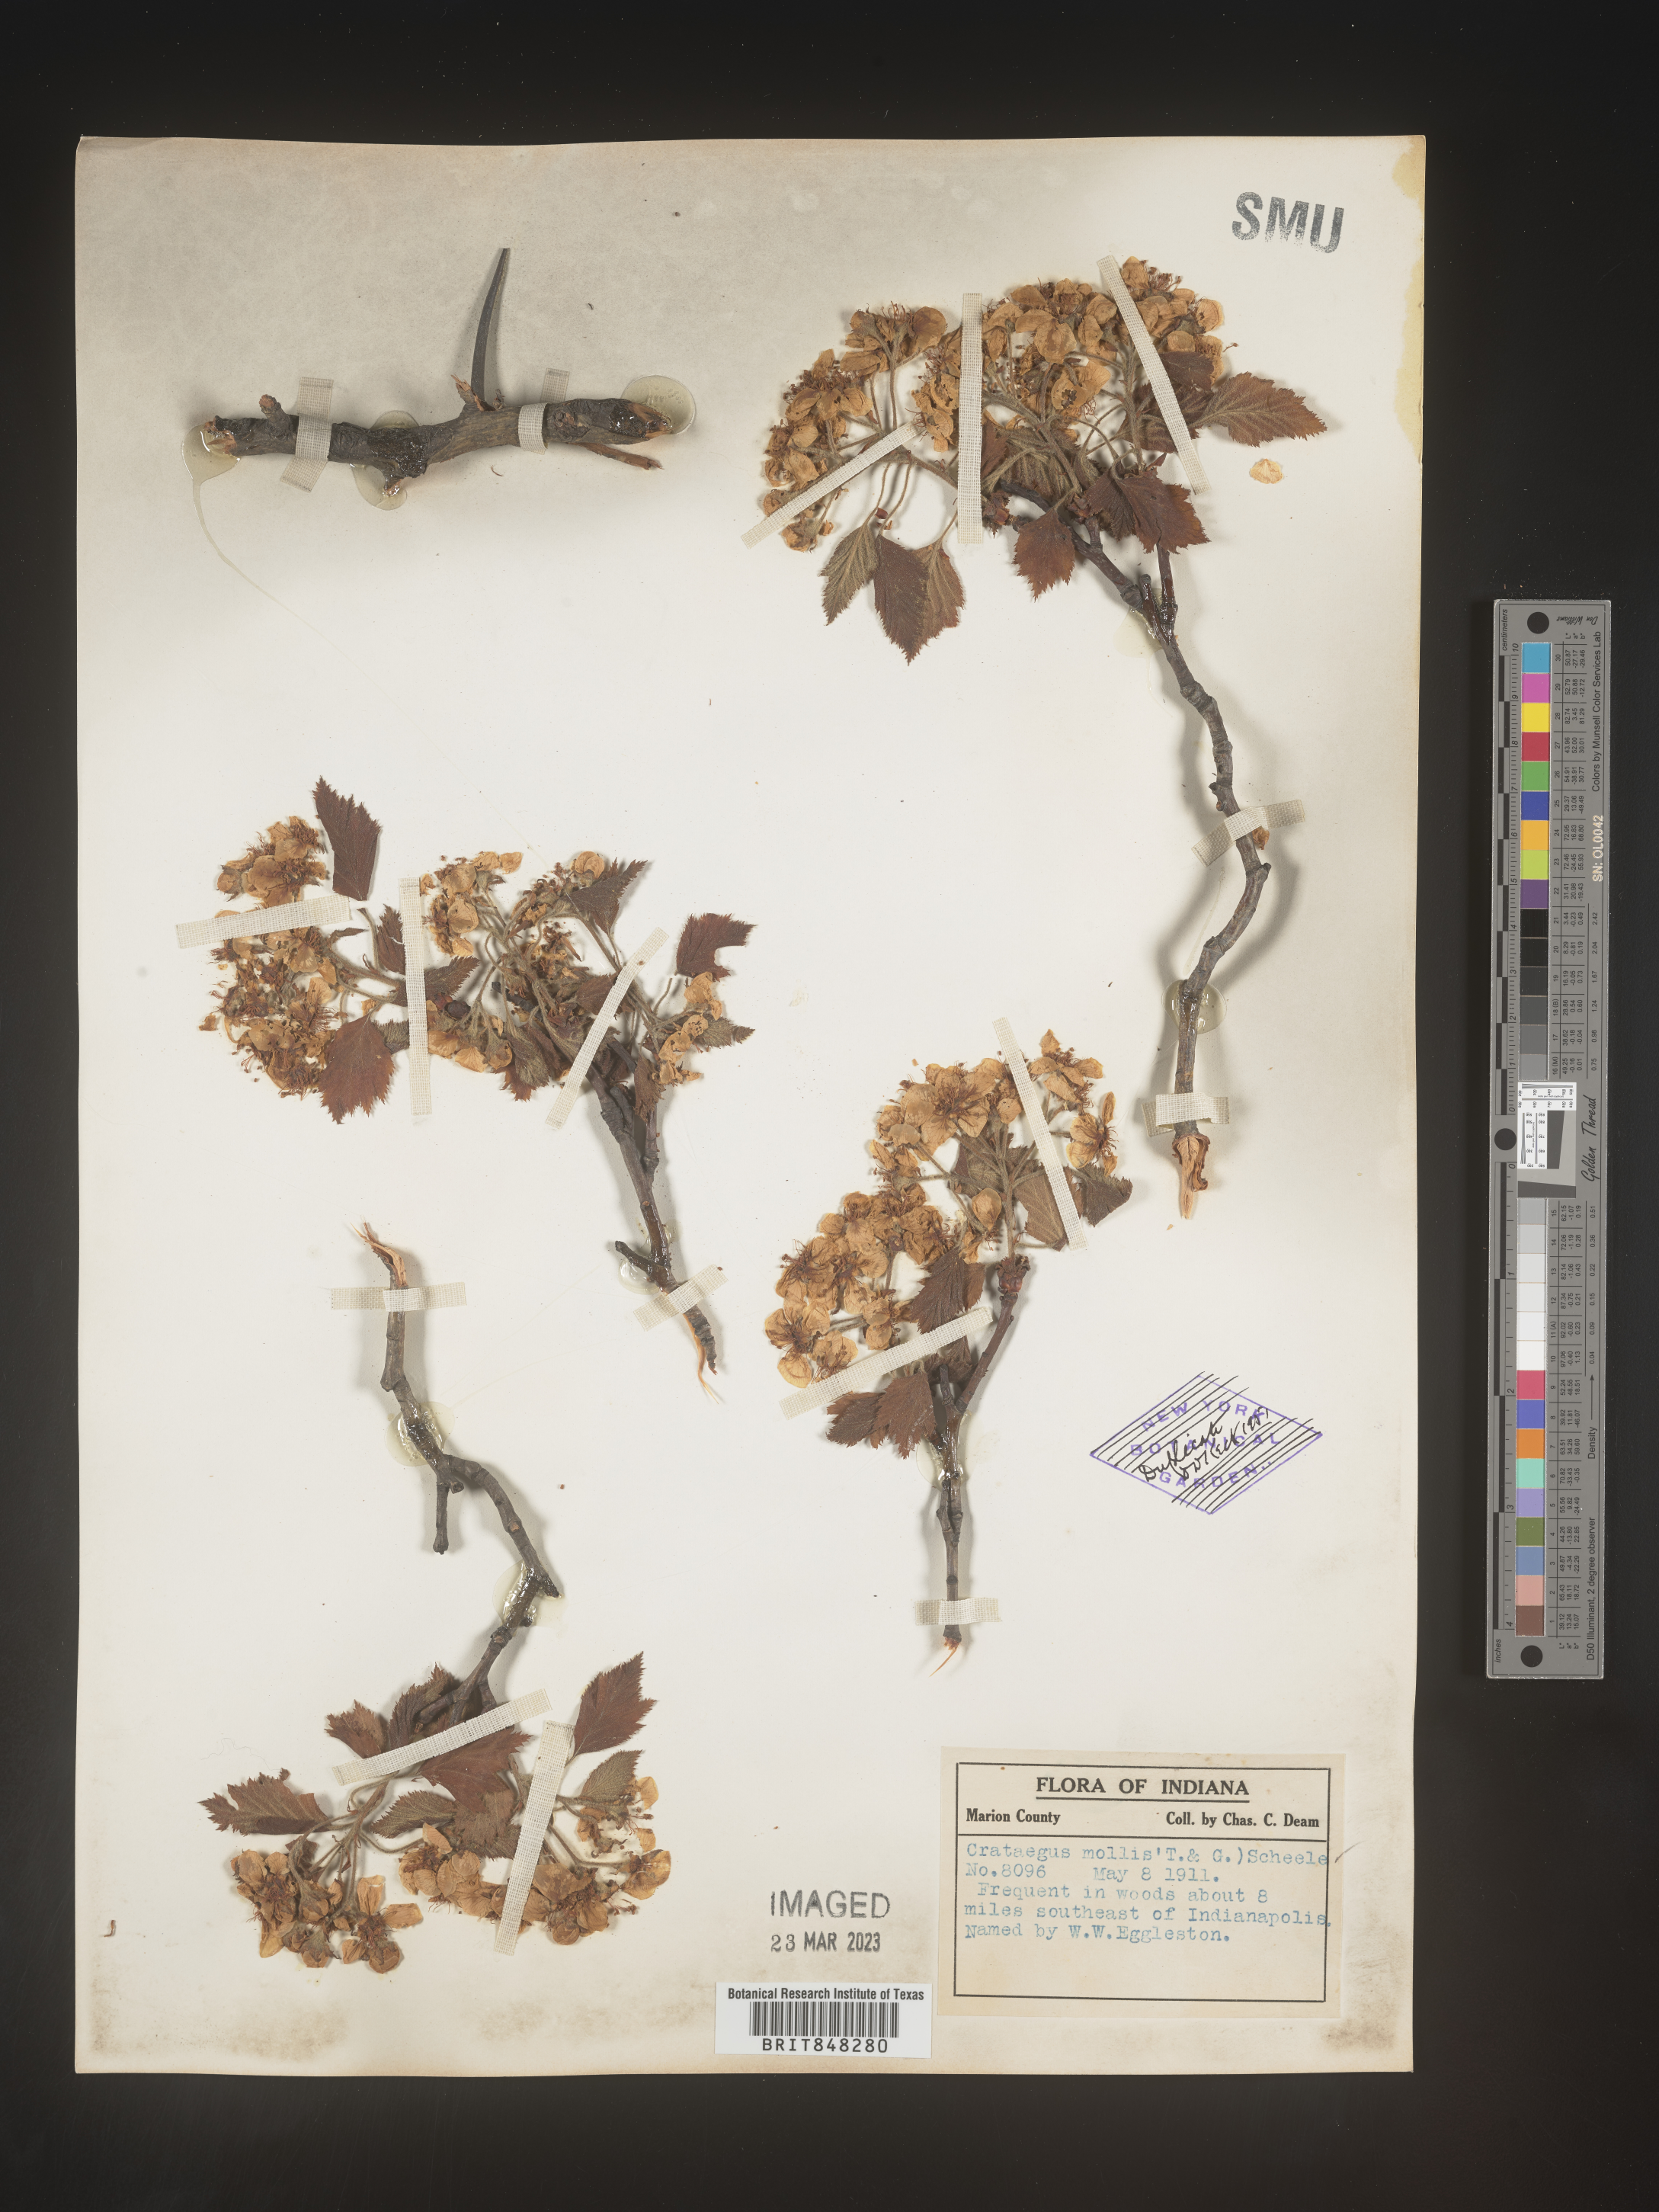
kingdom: Plantae
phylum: Tracheophyta
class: Magnoliopsida
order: Rosales
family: Rosaceae
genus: Crataegus
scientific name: Crataegus mollis
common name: Downy hawthorn
